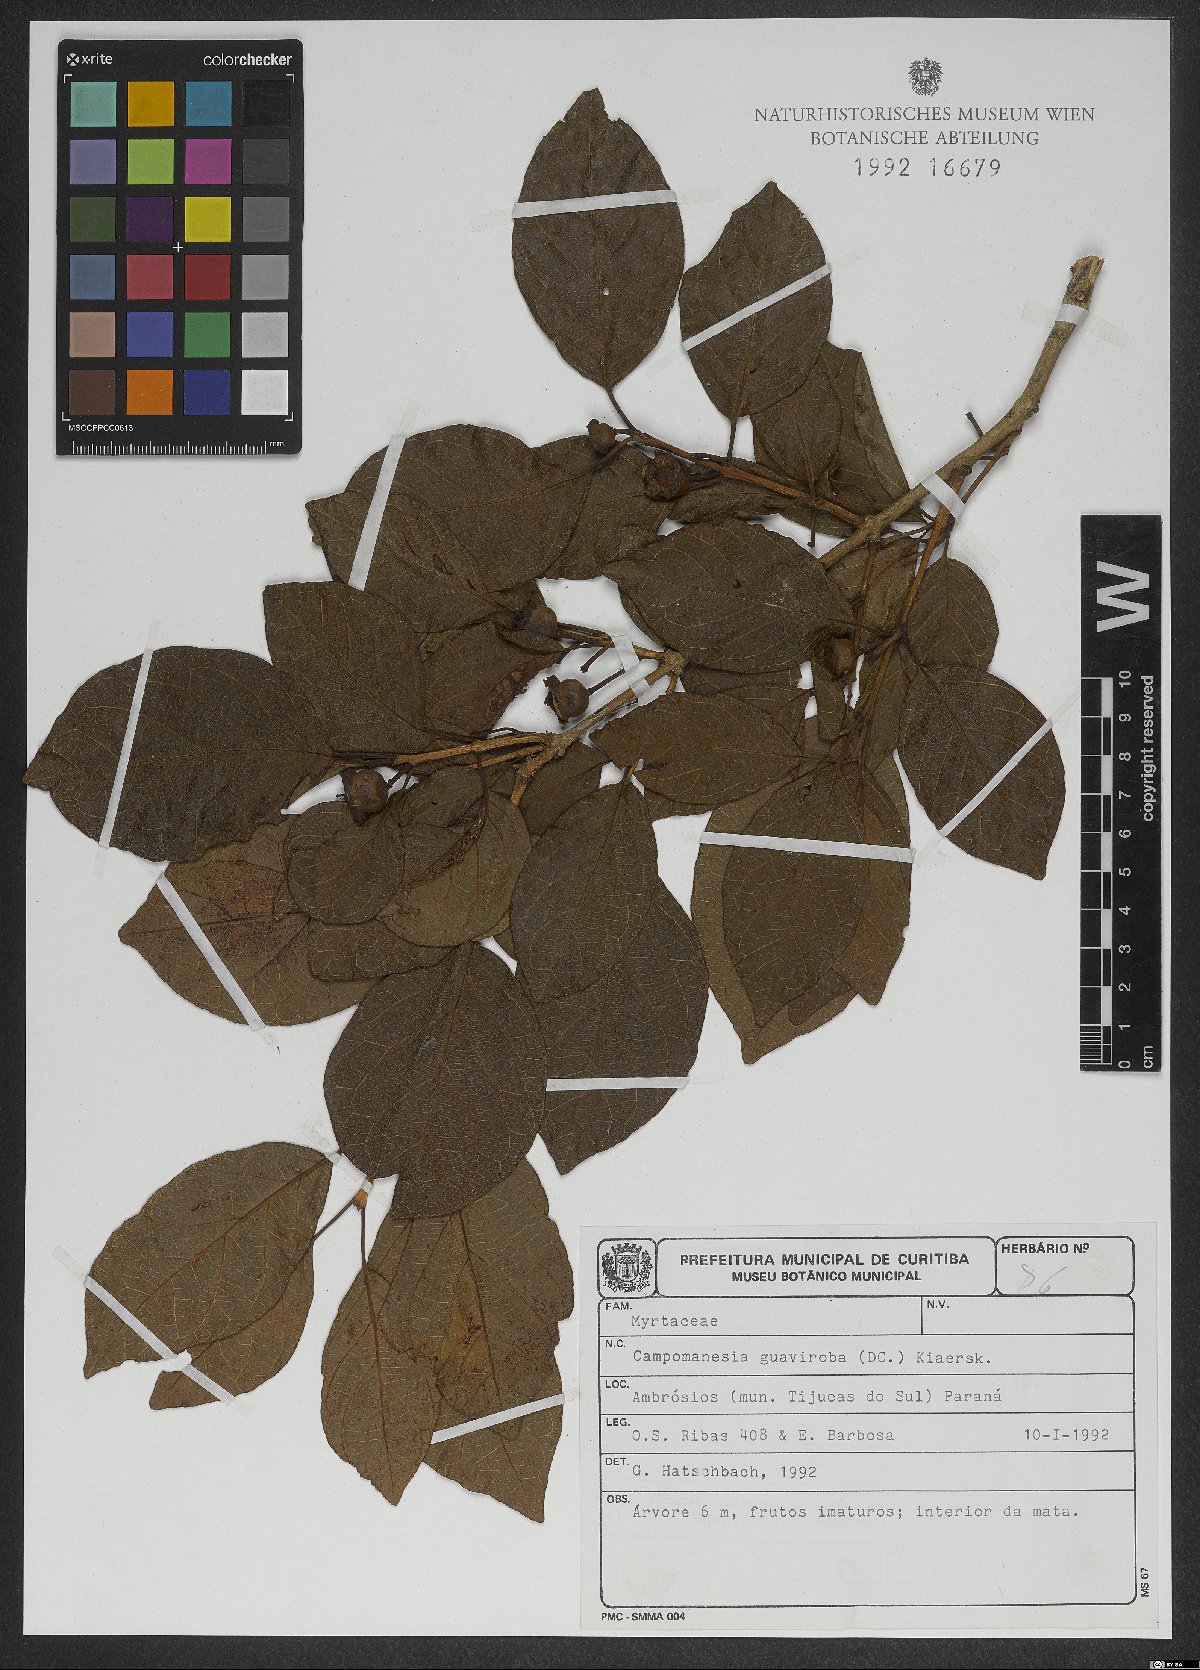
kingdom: Plantae
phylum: Tracheophyta
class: Magnoliopsida
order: Myrtales
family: Myrtaceae
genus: Campomanesia
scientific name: Campomanesia guaviroba
